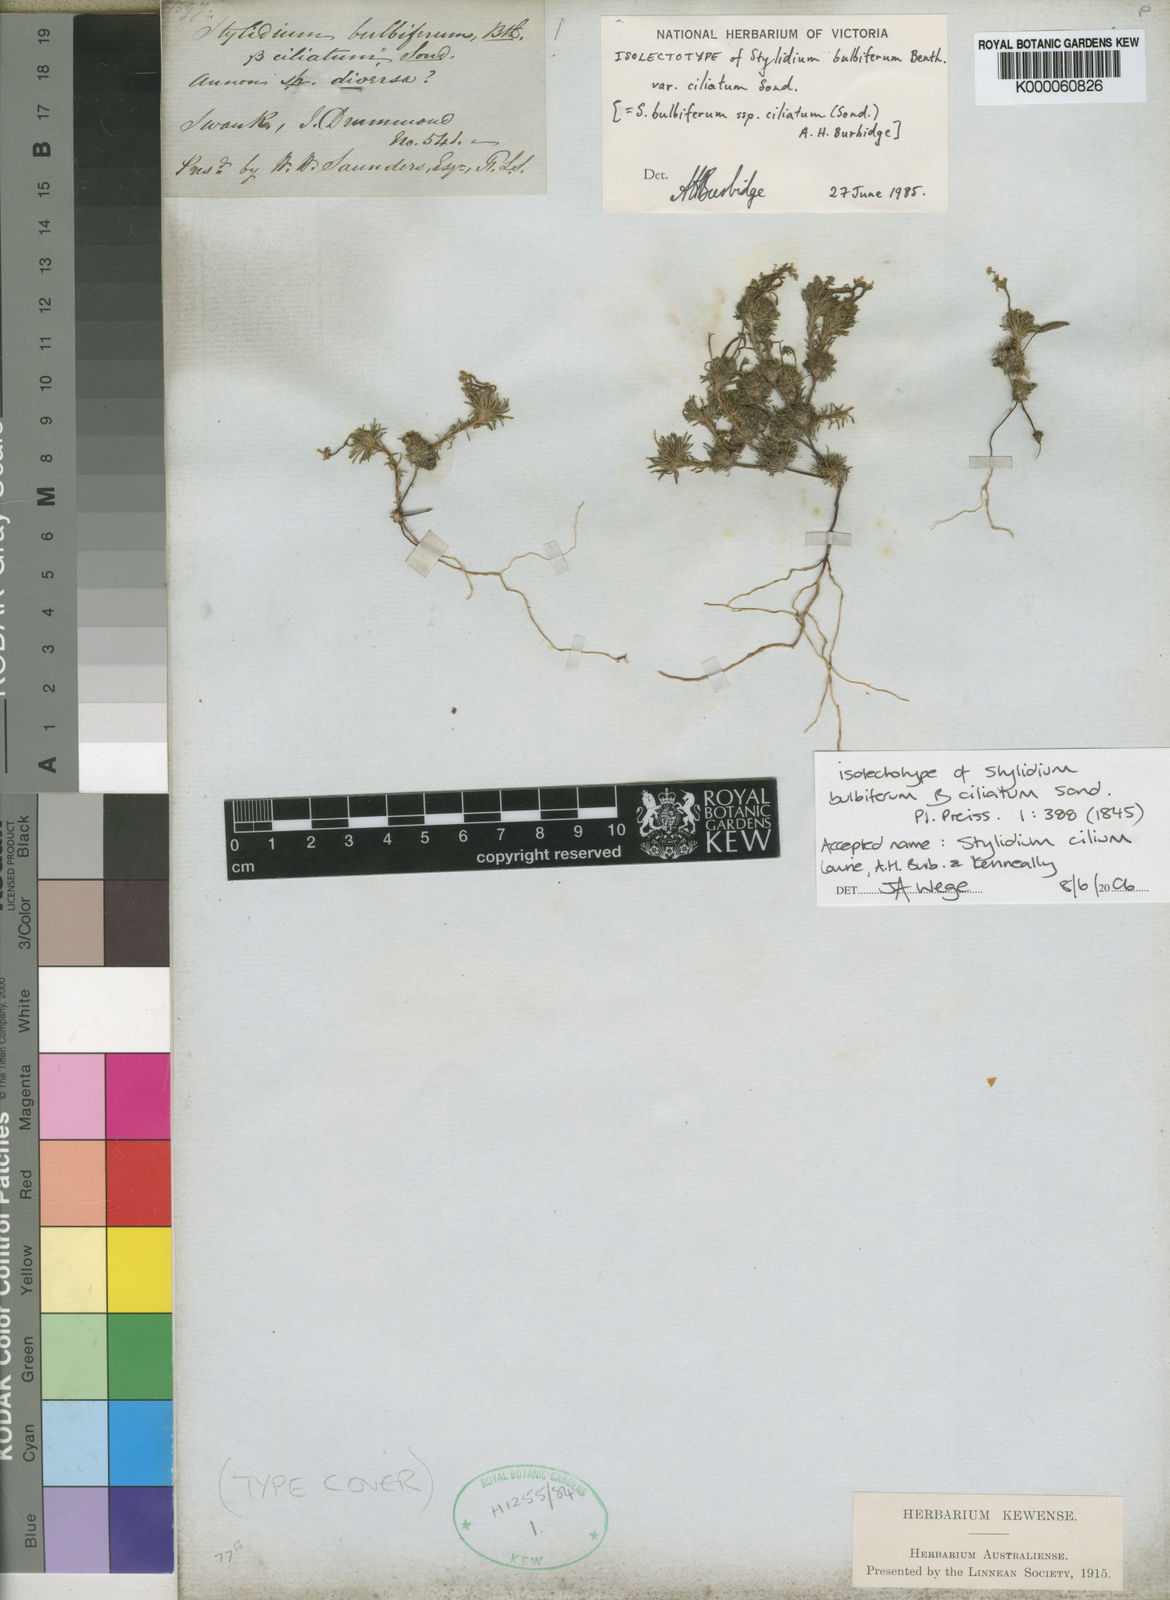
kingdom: Plantae
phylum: Tracheophyta
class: Magnoliopsida
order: Asterales
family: Stylidiaceae
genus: Stylidium
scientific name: Stylidium
